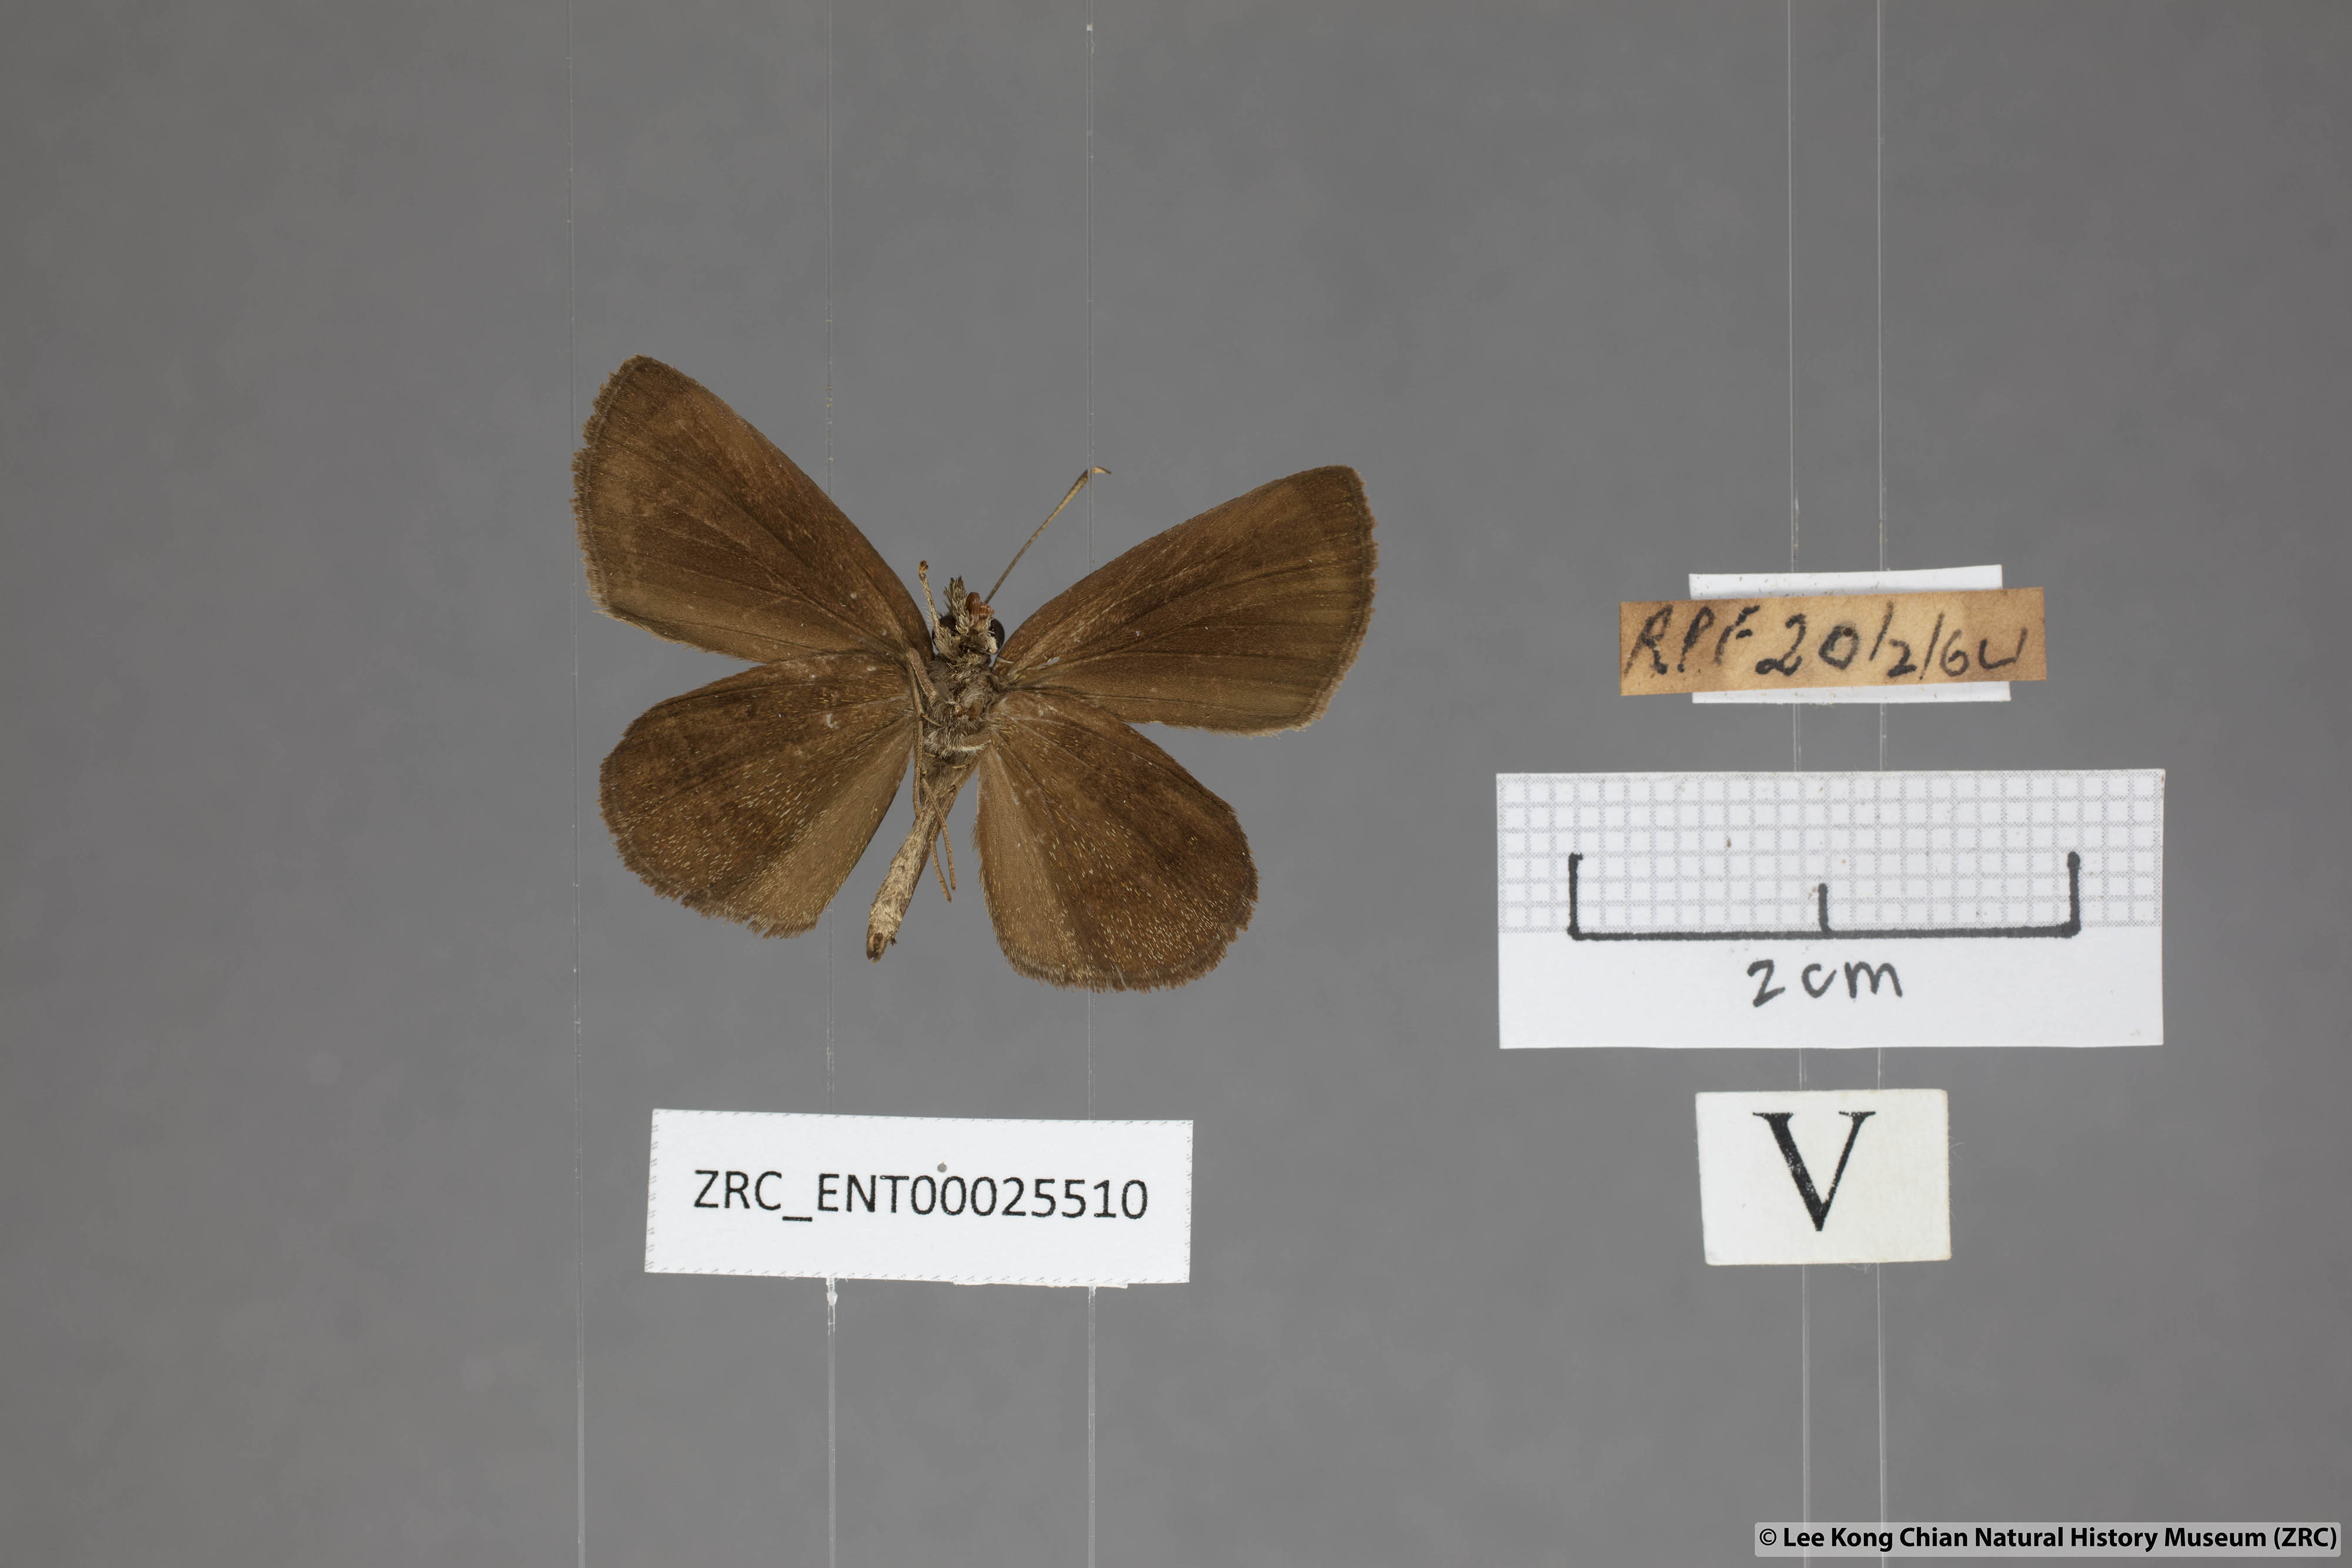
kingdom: Animalia
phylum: Arthropoda
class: Insecta
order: Lepidoptera
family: Hesperiidae
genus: Psolos
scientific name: Psolos fuligo
